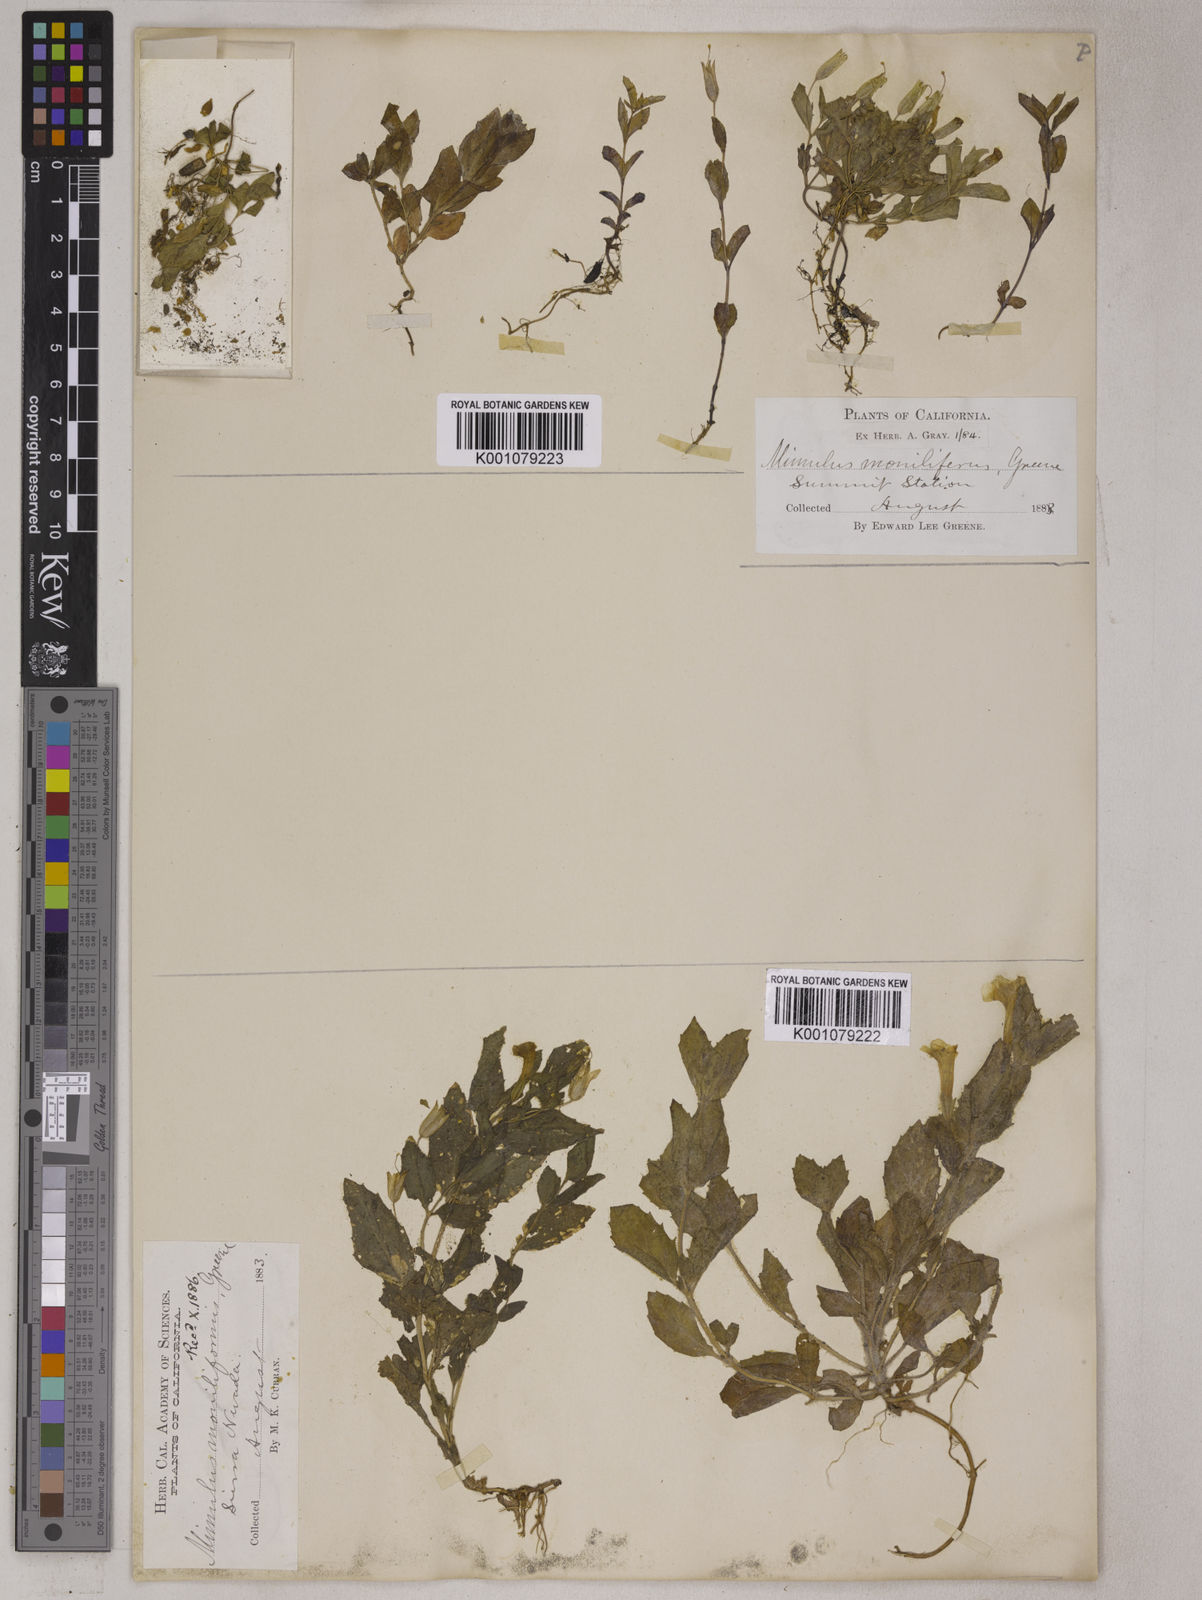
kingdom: Plantae
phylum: Tracheophyta
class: Magnoliopsida
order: Lamiales
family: Phrymaceae
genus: Mimulus
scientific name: Mimulus
